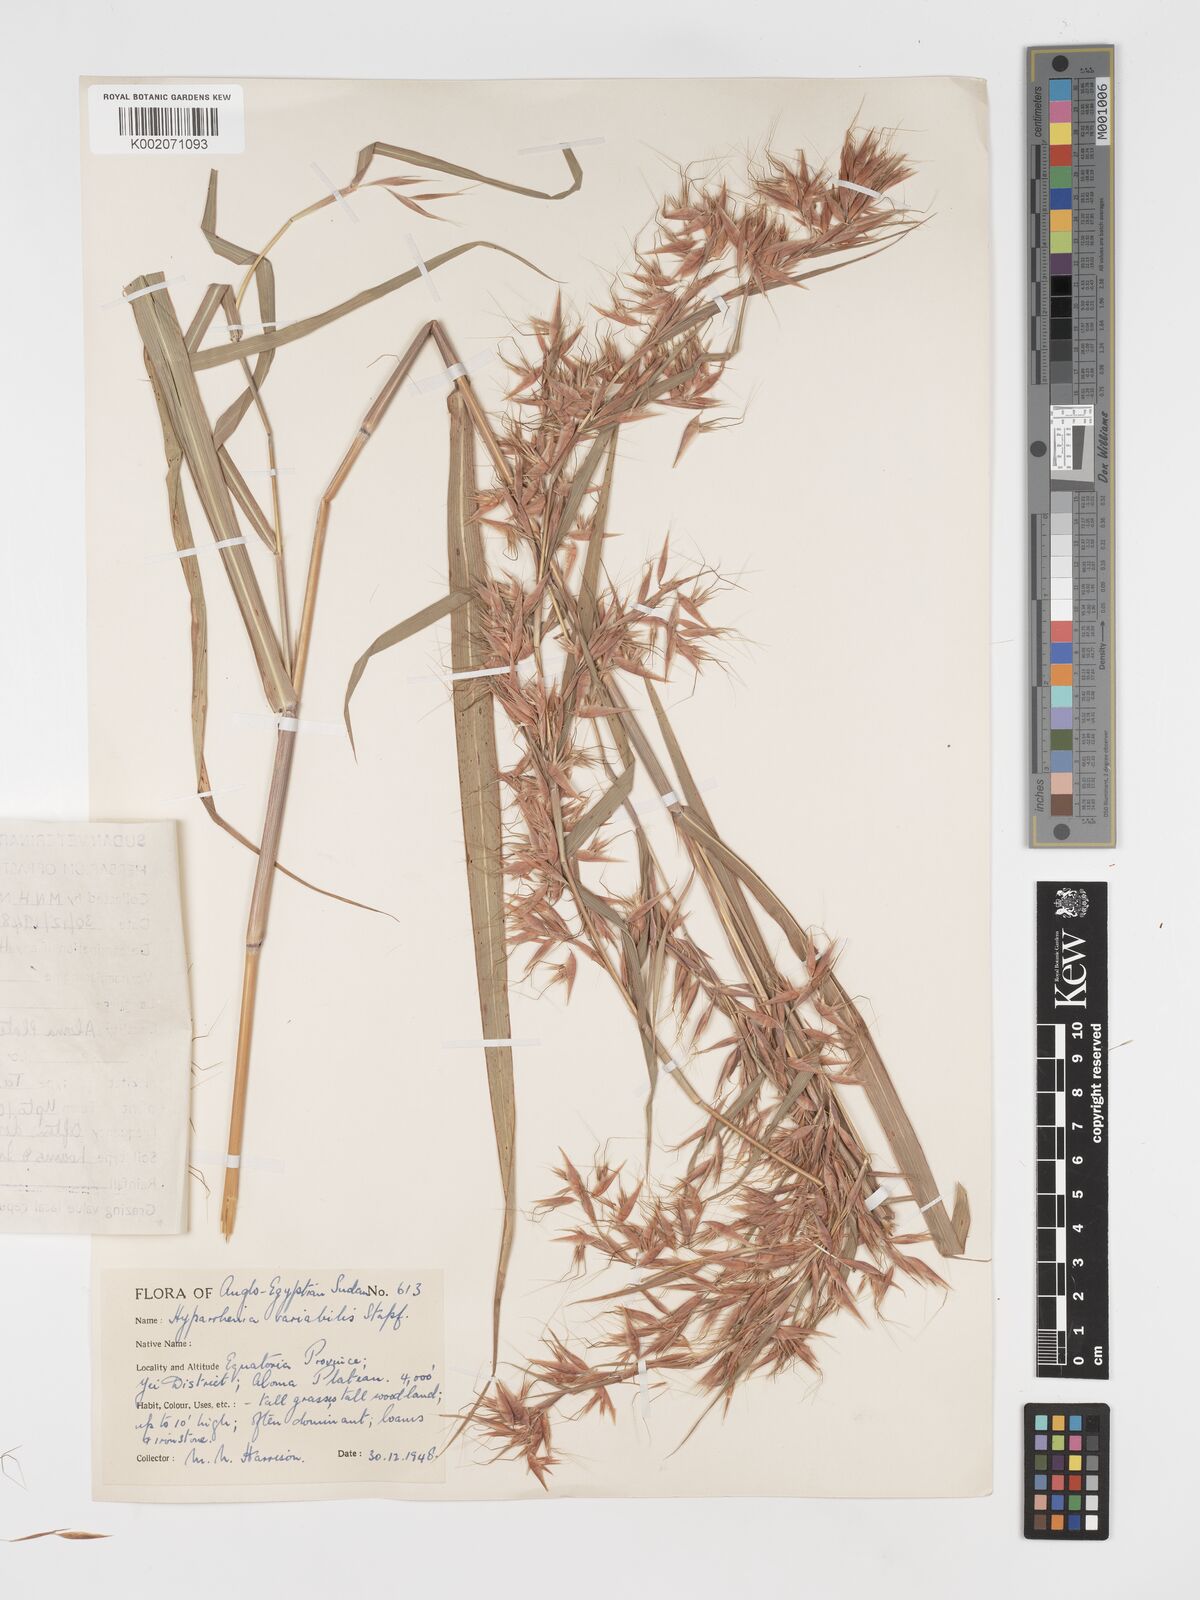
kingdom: Plantae
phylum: Tracheophyta
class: Liliopsida
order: Poales
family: Poaceae
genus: Hyparrhenia
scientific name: Hyparrhenia variabilis
